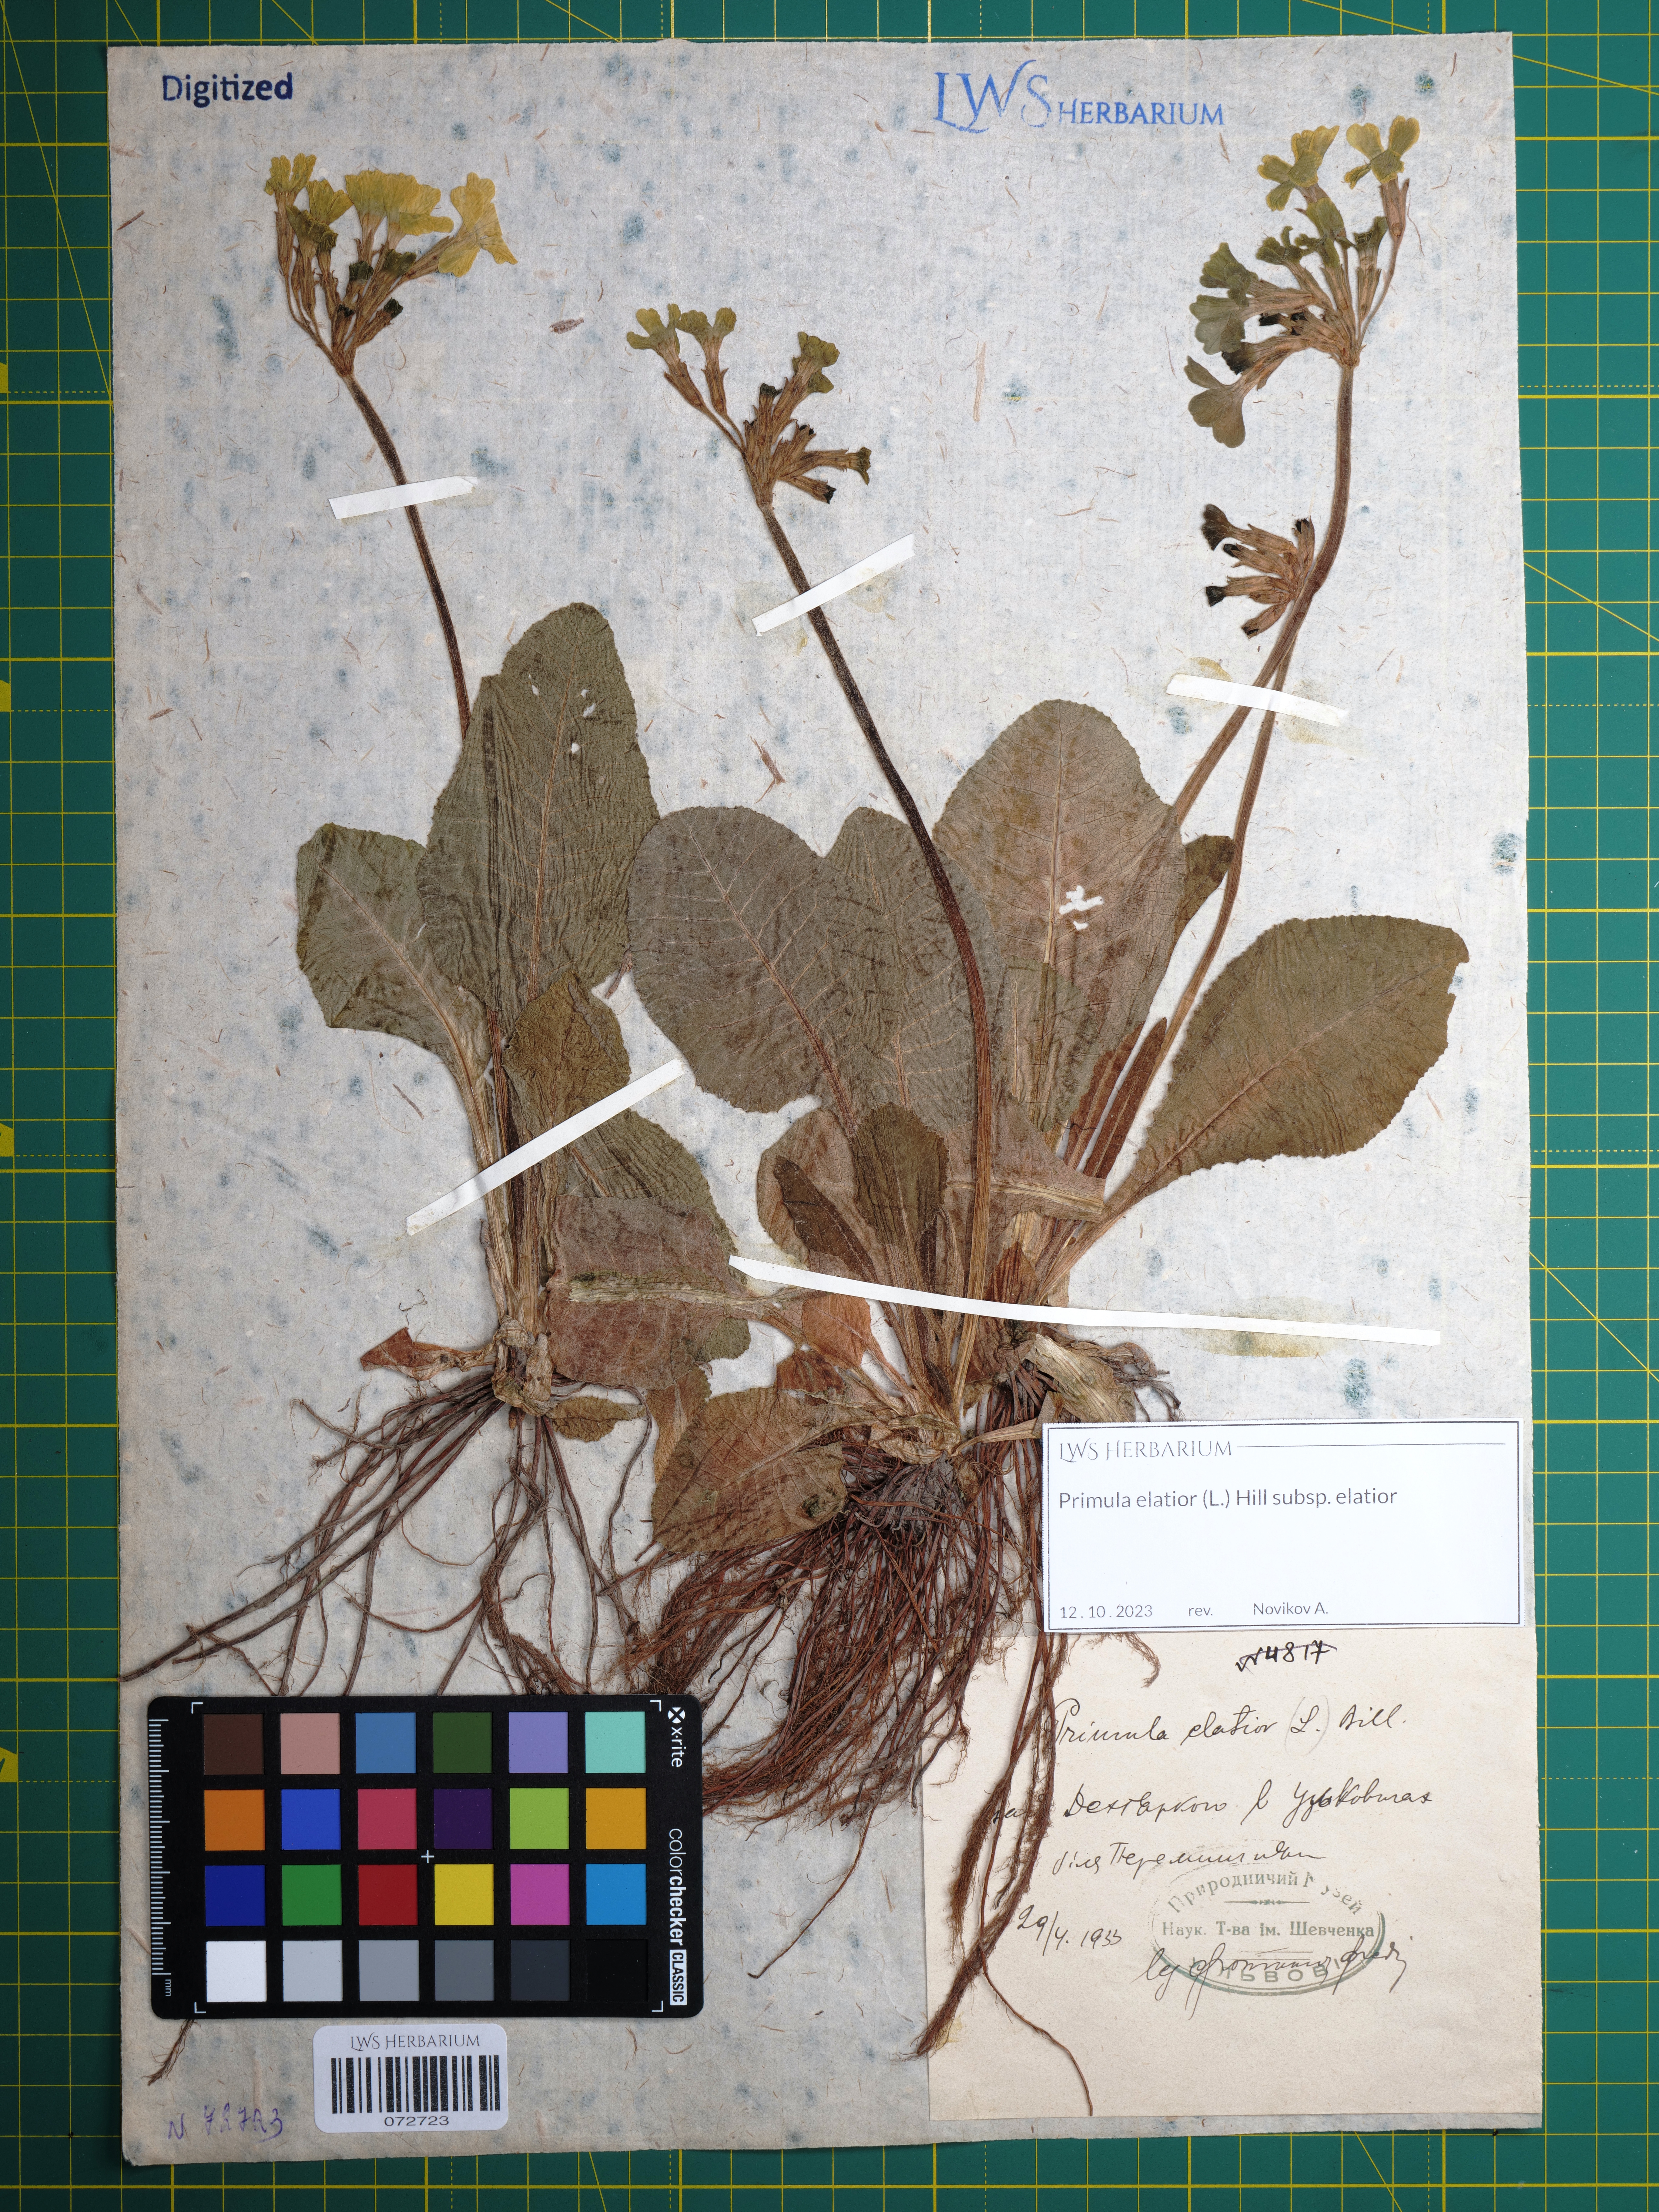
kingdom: Plantae
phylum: Tracheophyta
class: Magnoliopsida
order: Ericales
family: Primulaceae
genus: Primula
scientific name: Primula elatior
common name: Oxlip
